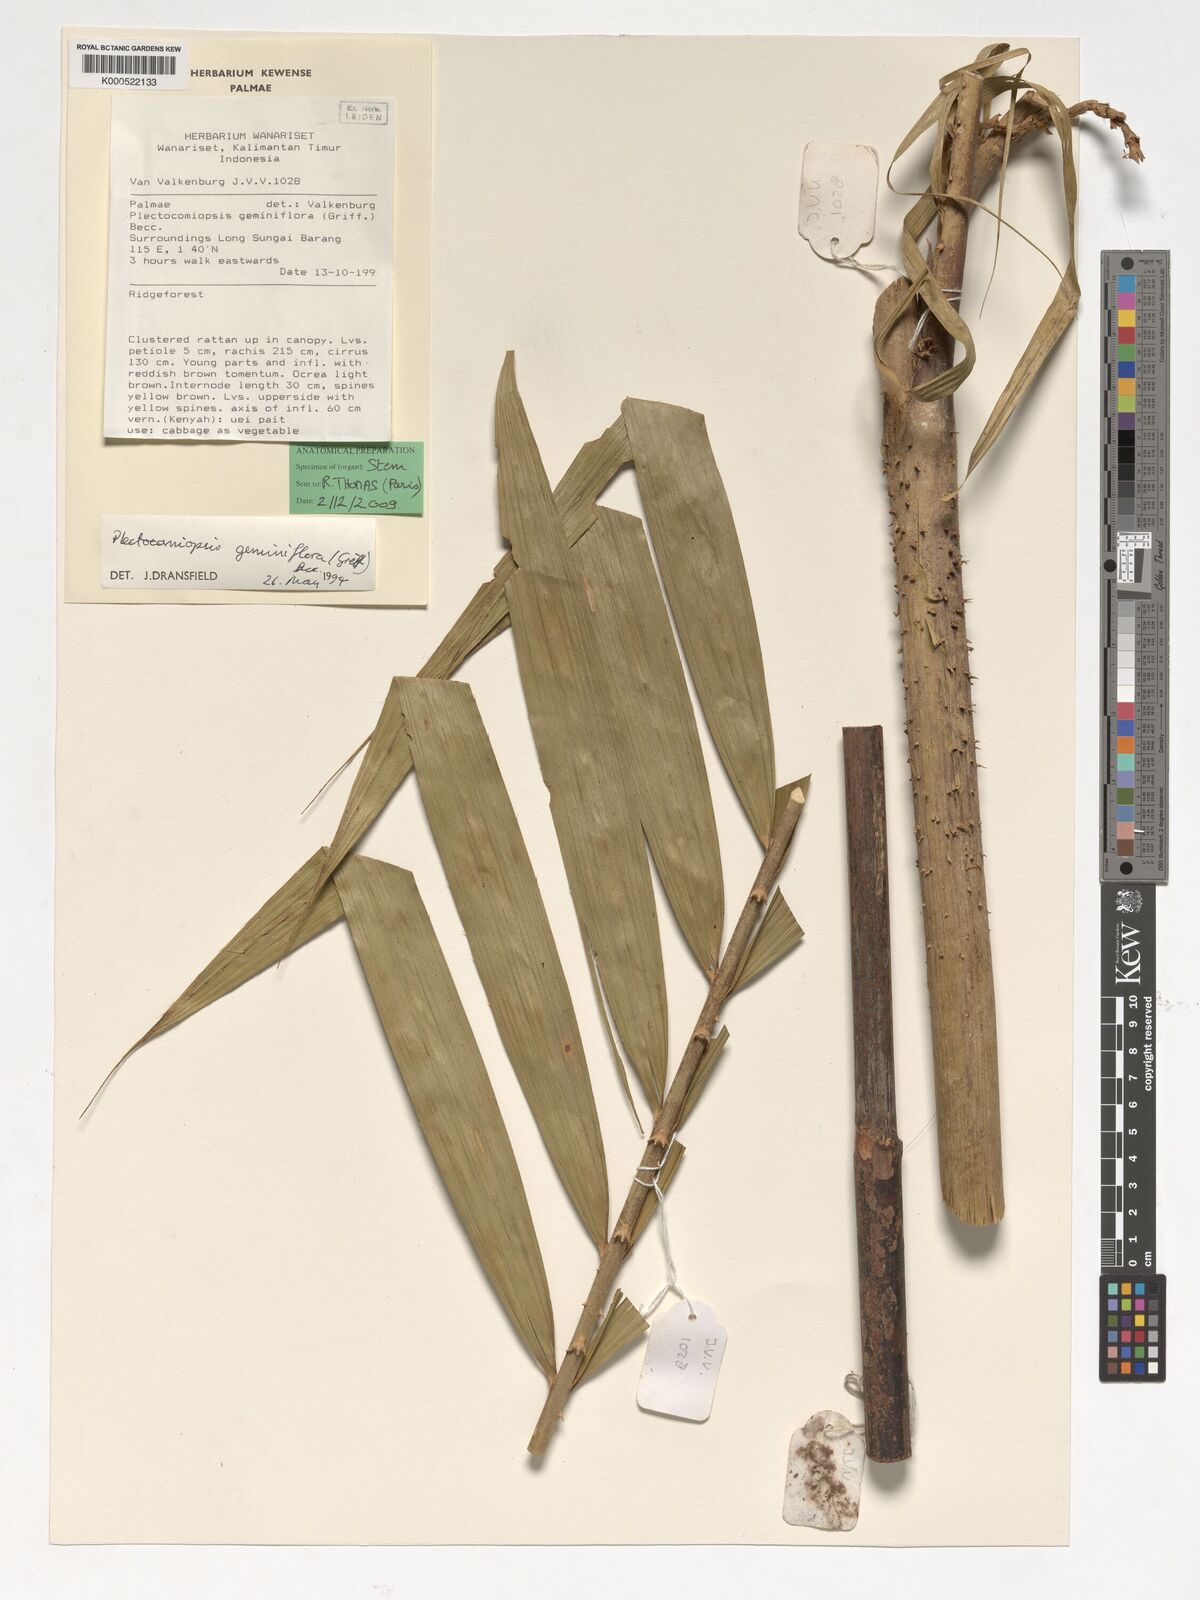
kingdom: Plantae
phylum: Tracheophyta
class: Liliopsida
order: Arecales
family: Arecaceae
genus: Plectocomiopsis
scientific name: Plectocomiopsis geminiflora
